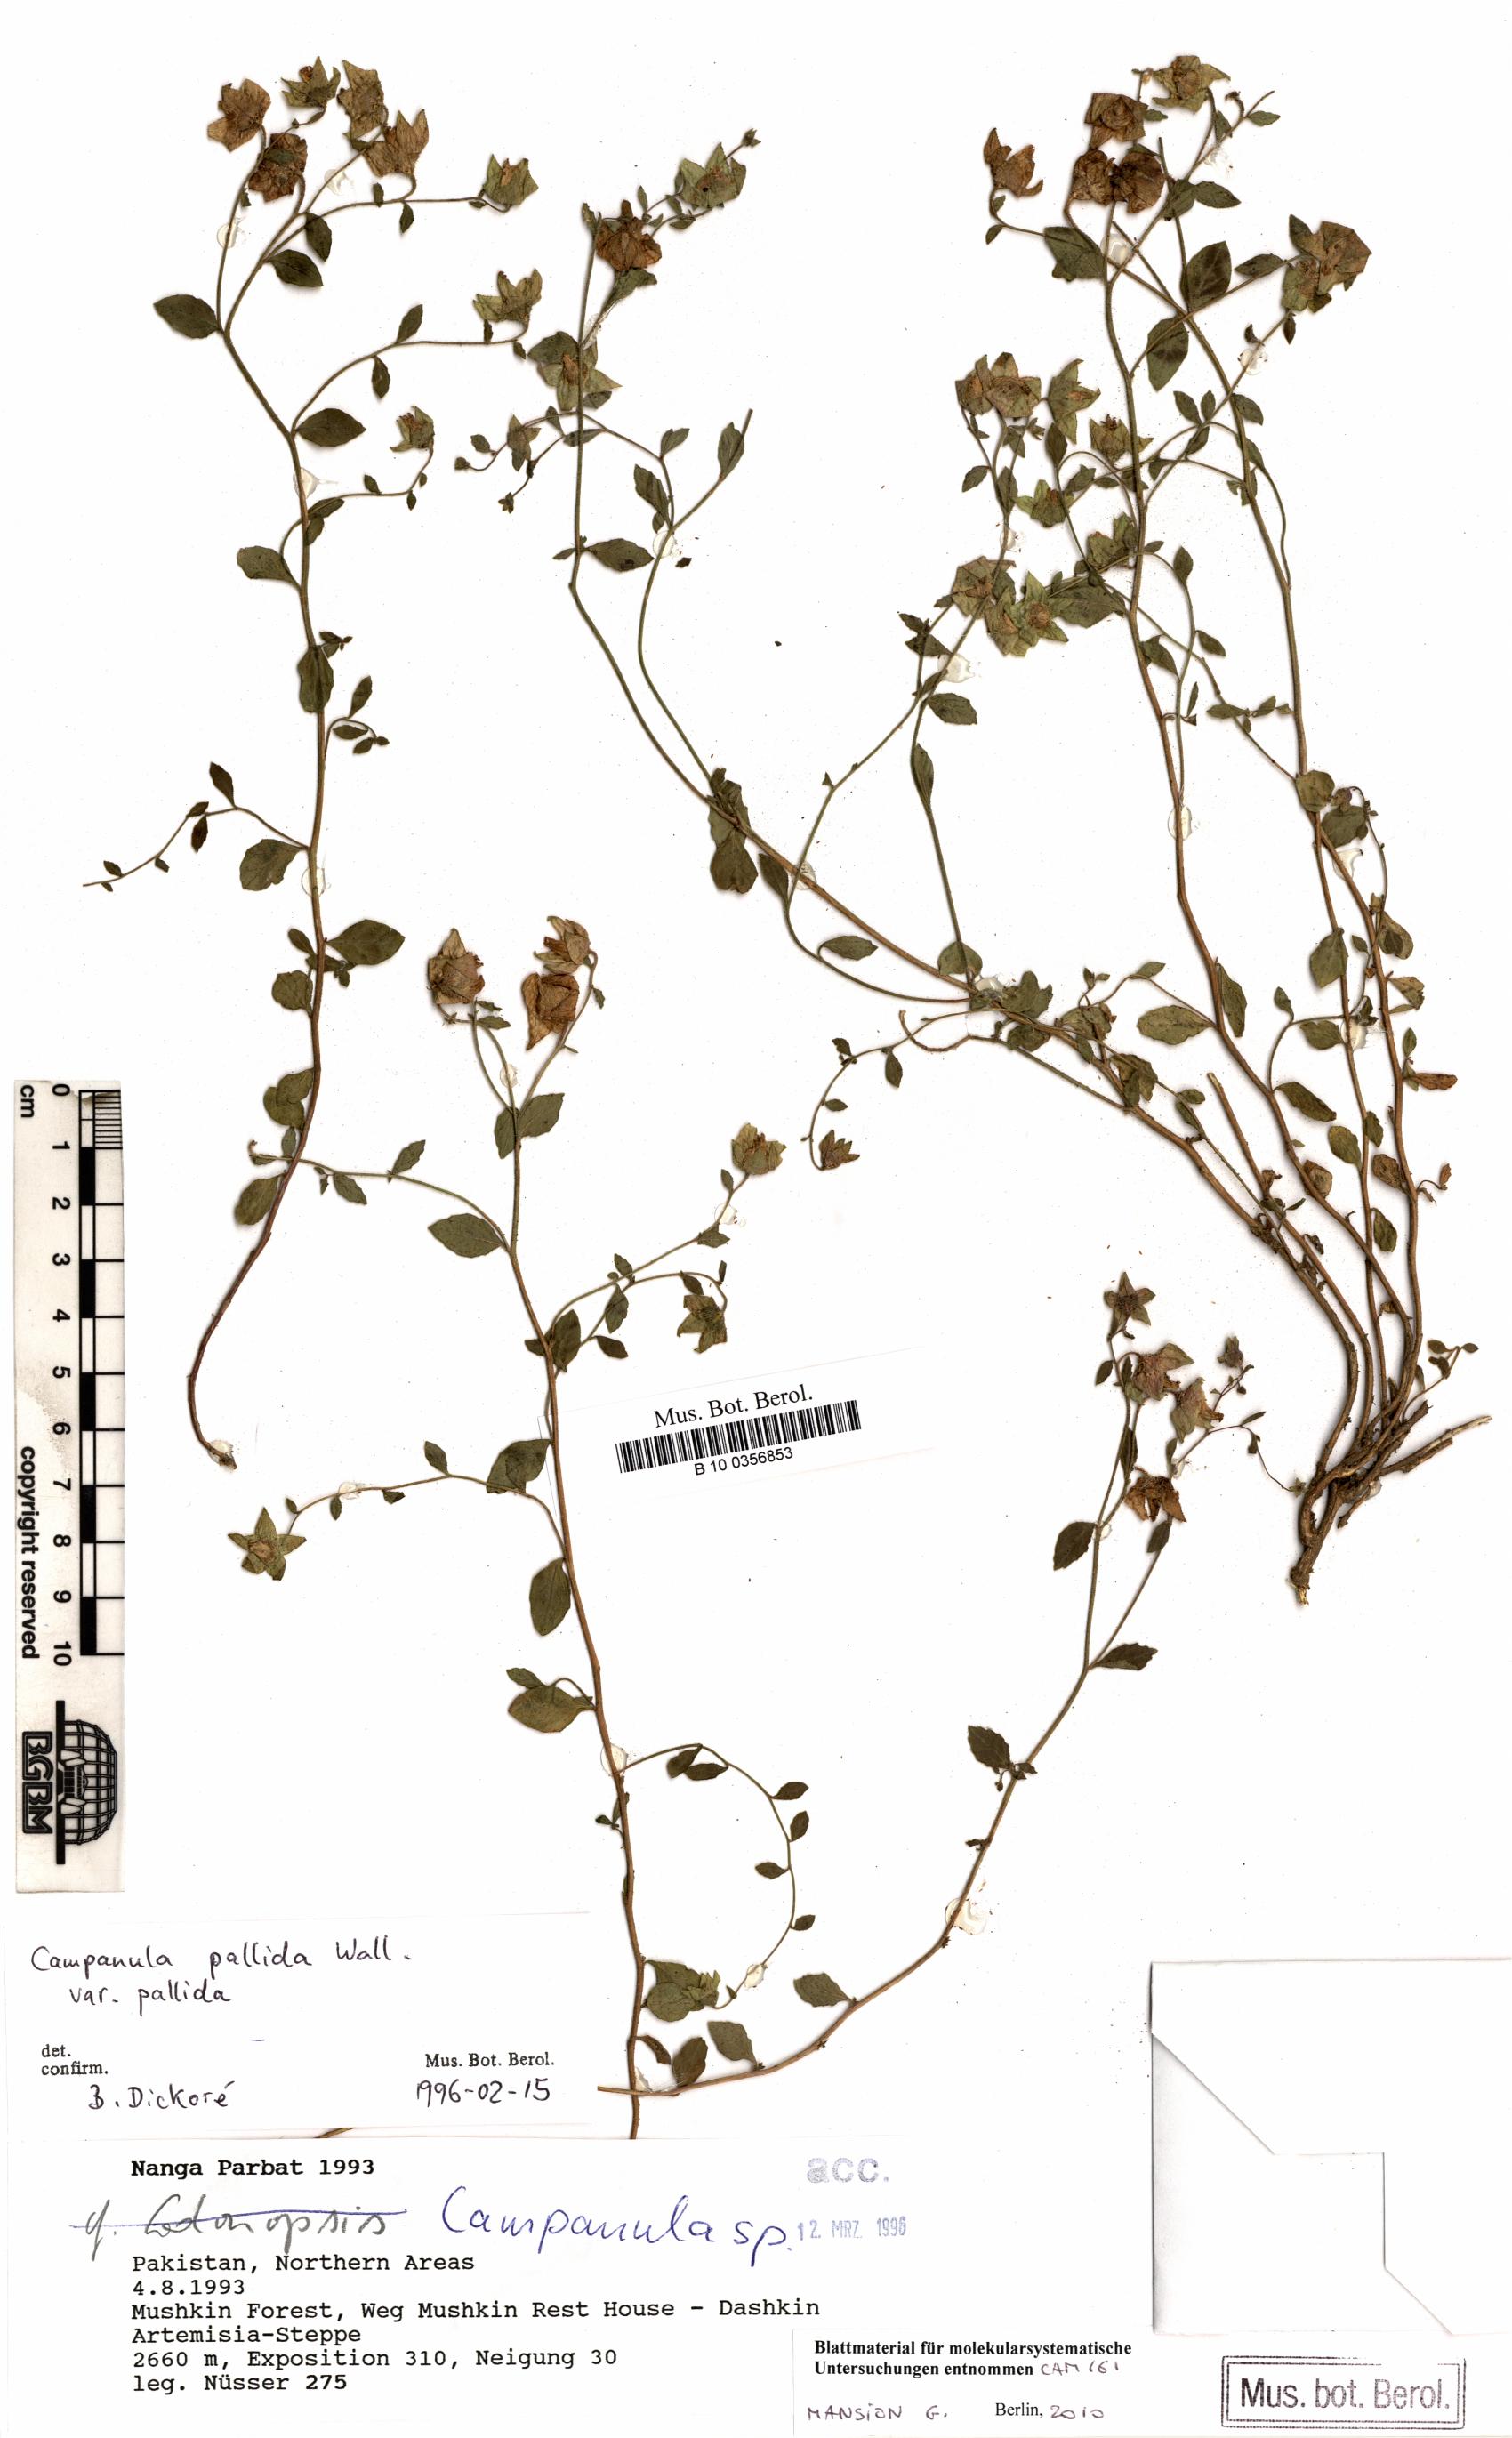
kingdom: Plantae
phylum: Tracheophyta
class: Magnoliopsida
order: Asterales
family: Campanulaceae
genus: Campanula
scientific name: Campanula pallida
